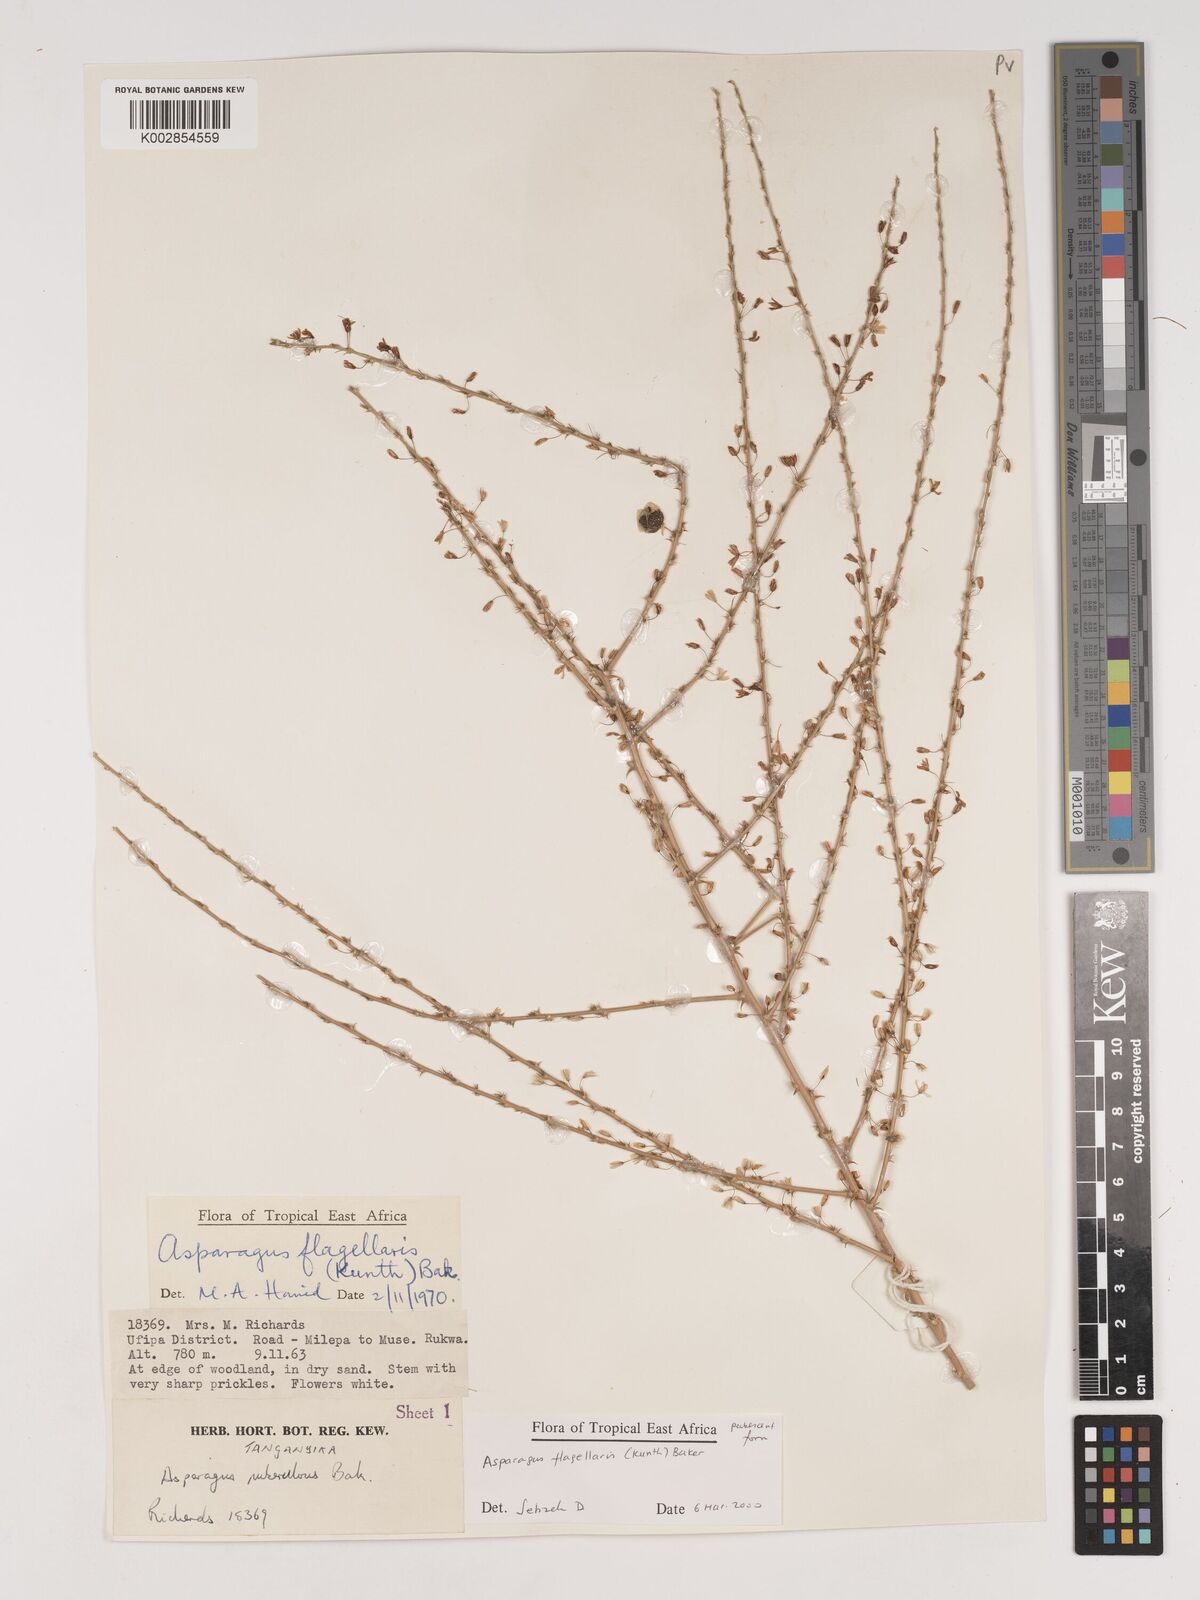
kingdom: Plantae
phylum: Tracheophyta
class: Liliopsida
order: Asparagales
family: Asparagaceae
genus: Asparagus
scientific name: Asparagus flagellaris
